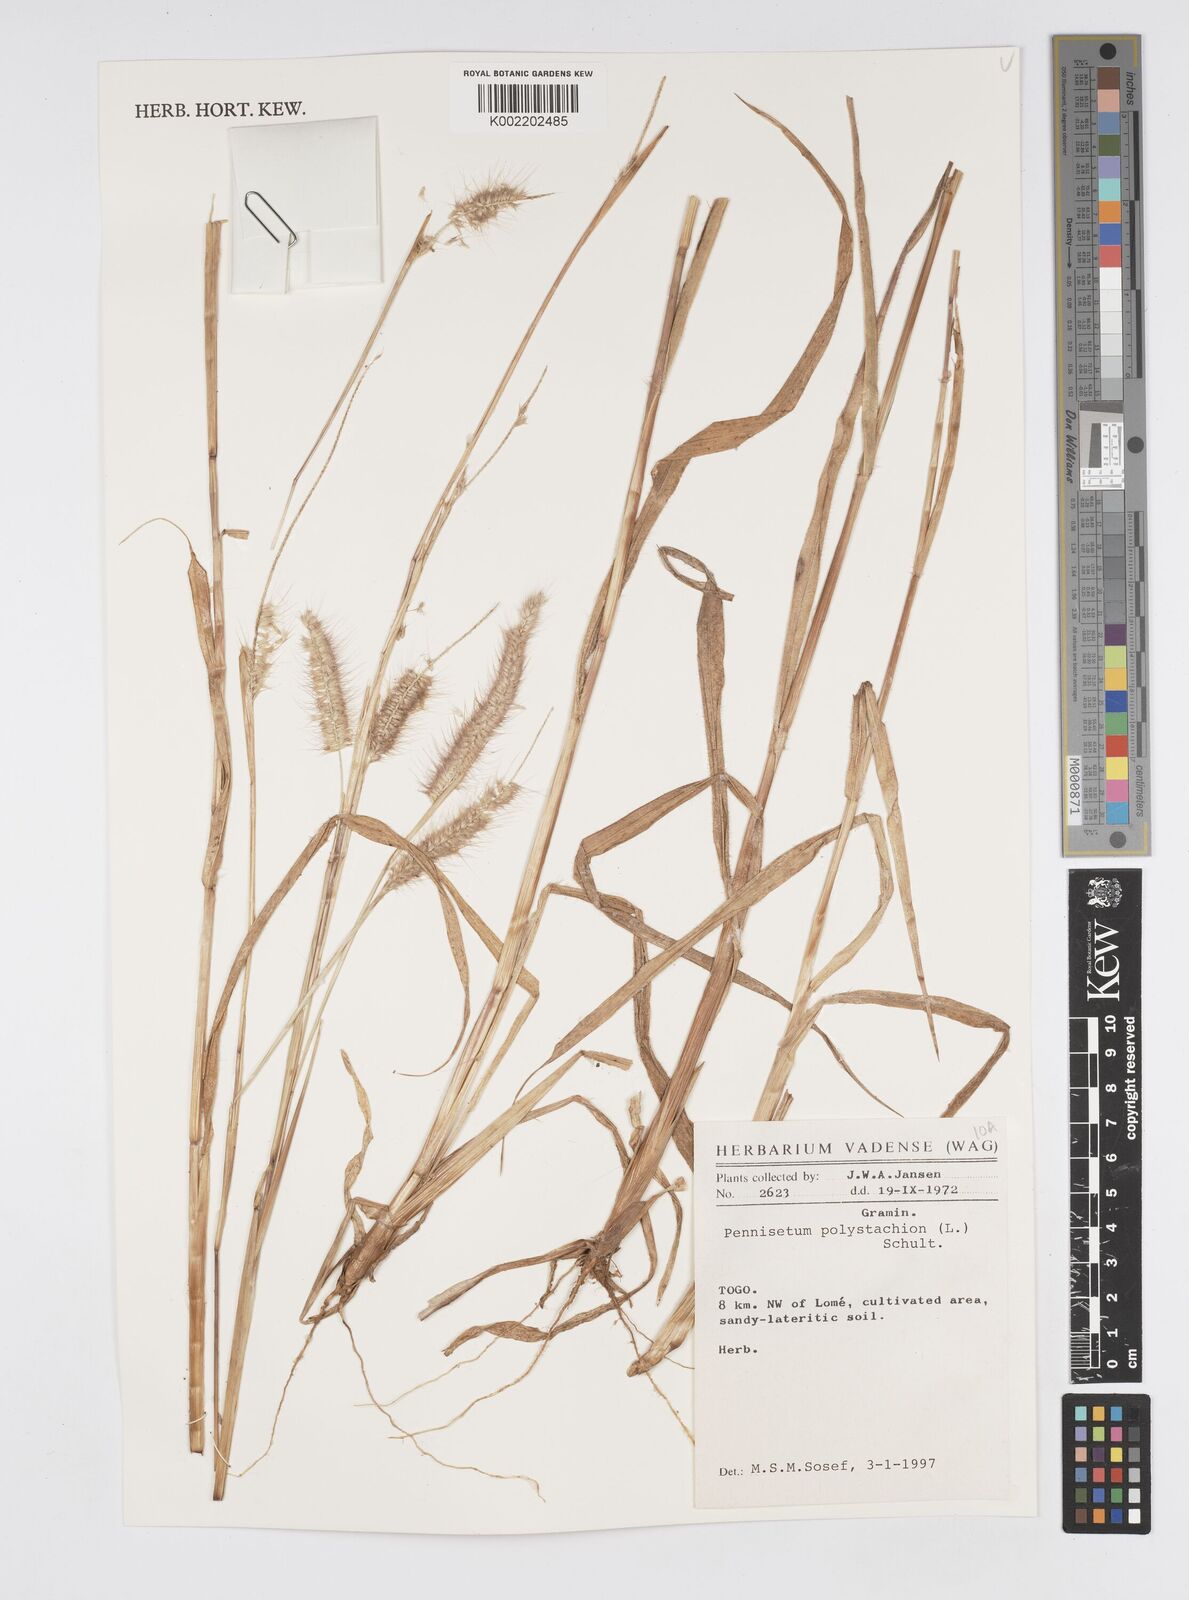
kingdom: Plantae
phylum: Tracheophyta
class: Liliopsida
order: Poales
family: Poaceae
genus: Setaria
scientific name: Setaria parviflora
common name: Knotroot bristle-grass
